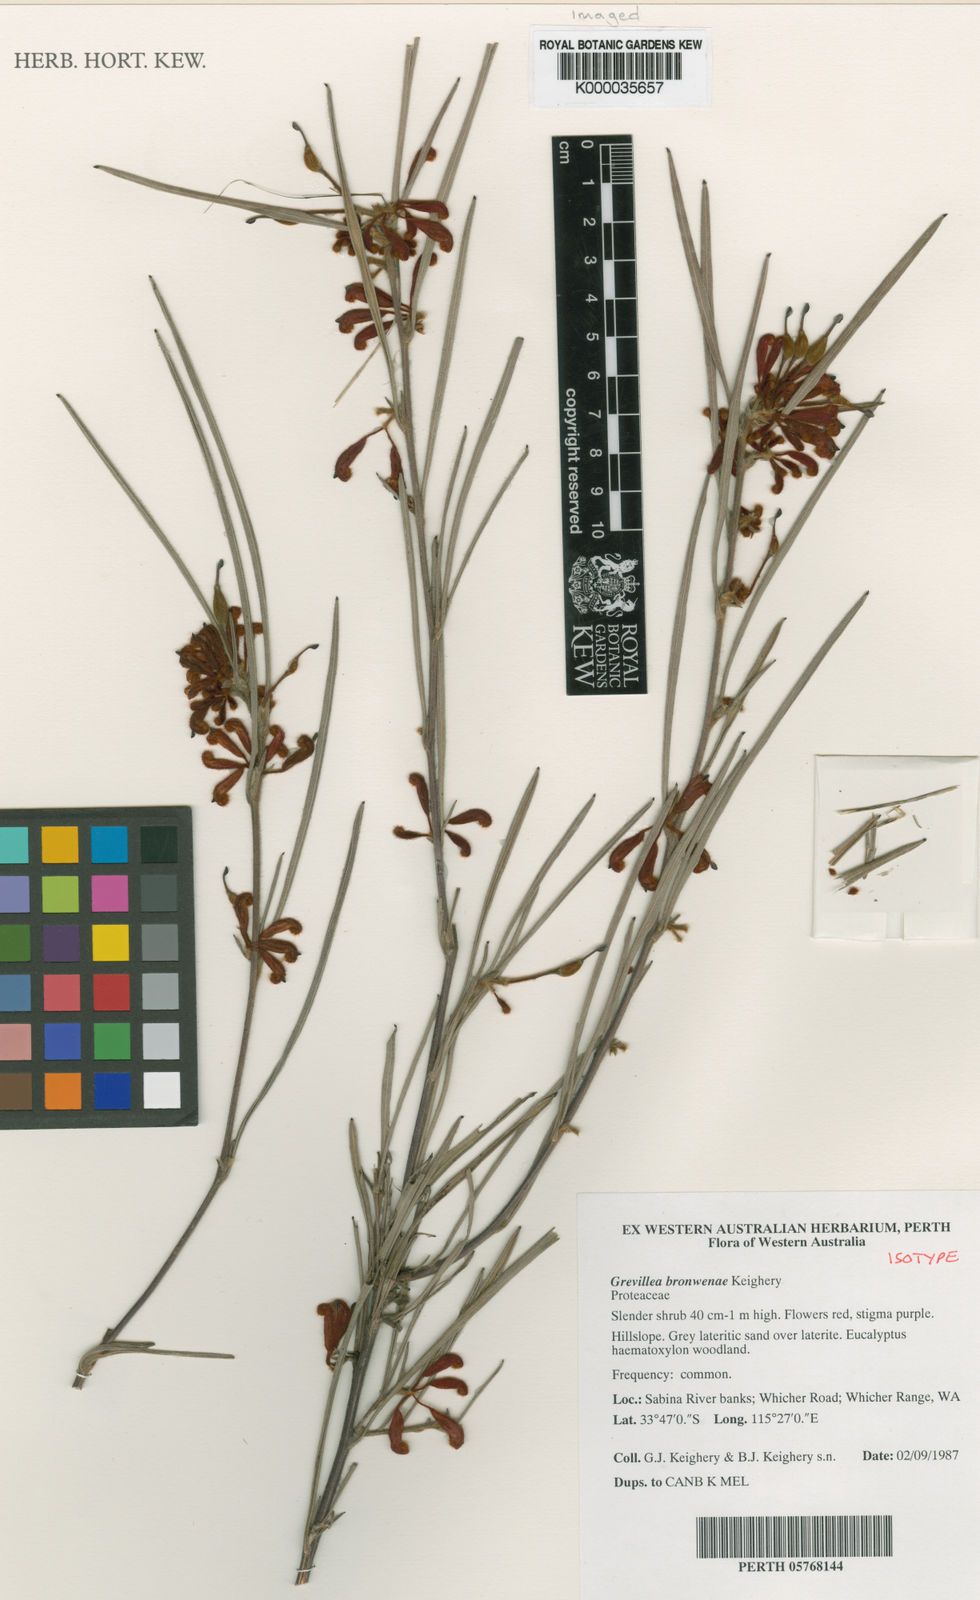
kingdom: Plantae
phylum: Tracheophyta
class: Magnoliopsida
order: Proteales
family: Proteaceae
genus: Grevillea
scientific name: Grevillea bronweniae
